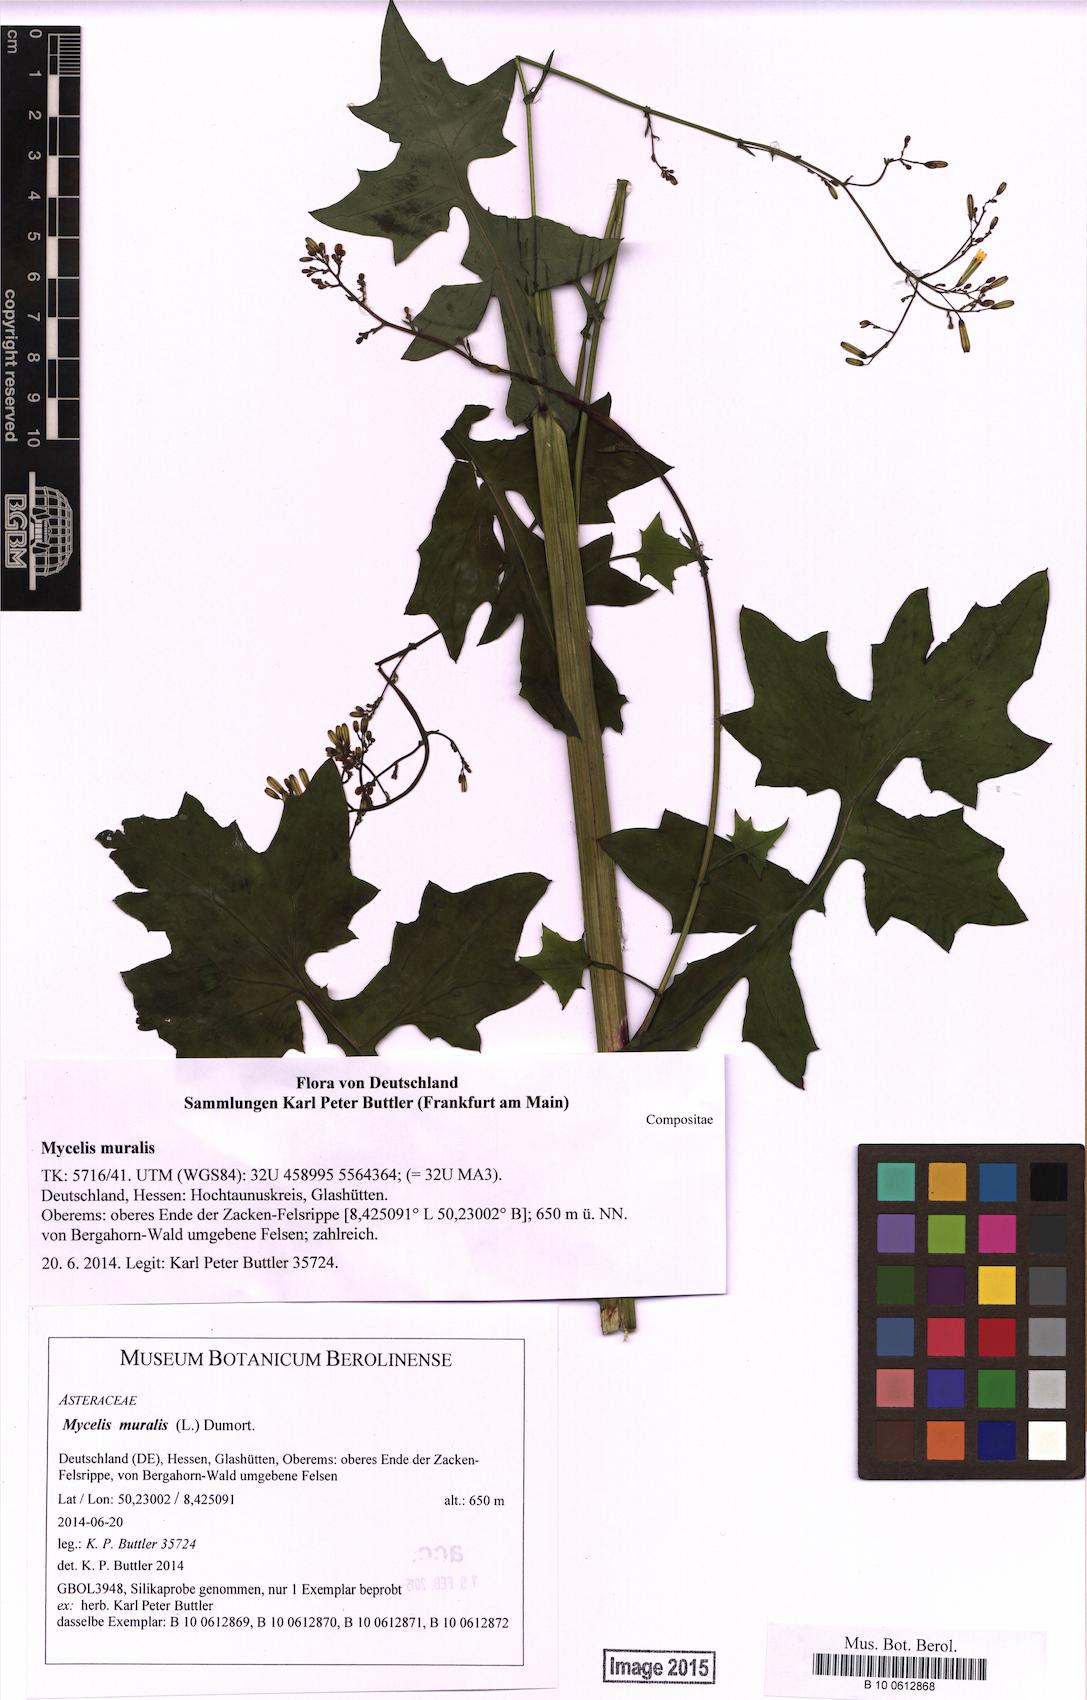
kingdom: Plantae
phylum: Tracheophyta
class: Magnoliopsida
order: Asterales
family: Asteraceae
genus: Mycelis
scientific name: Mycelis muralis
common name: Wall lettuce
